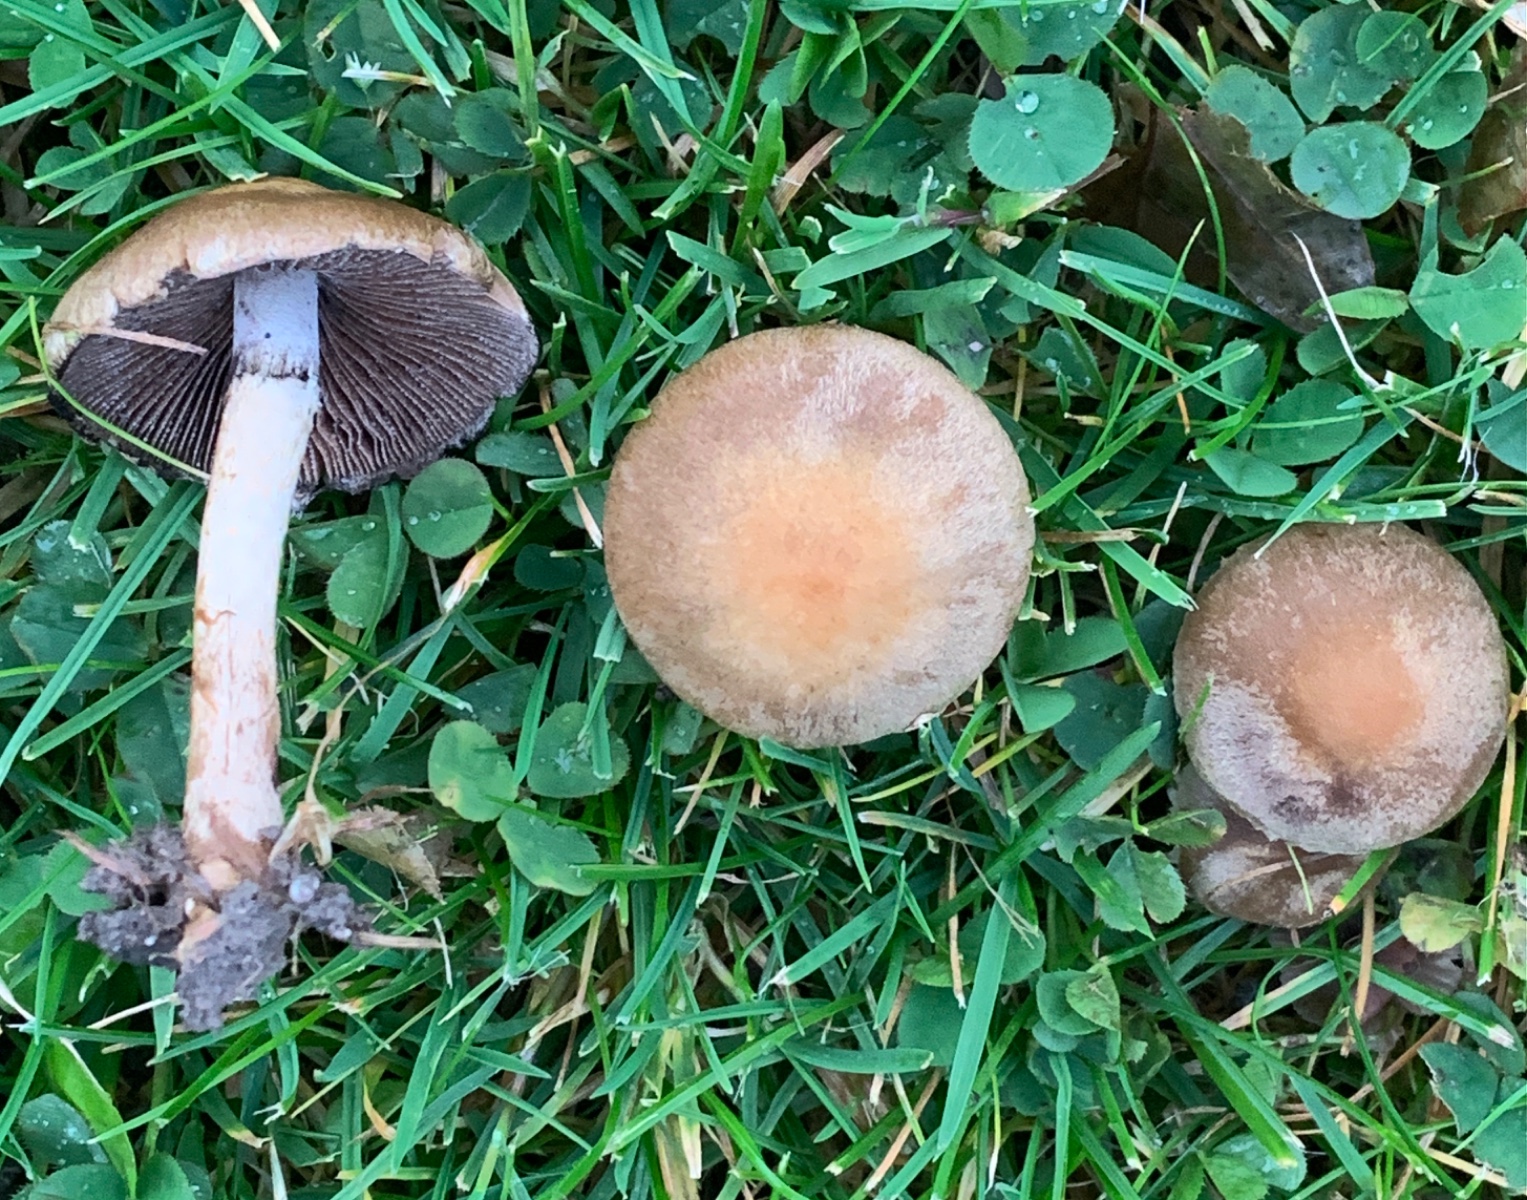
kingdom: Fungi
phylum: Basidiomycota
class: Agaricomycetes
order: Agaricales
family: Psathyrellaceae
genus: Lacrymaria
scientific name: Lacrymaria lacrymabunda
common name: grædende mørkhat
